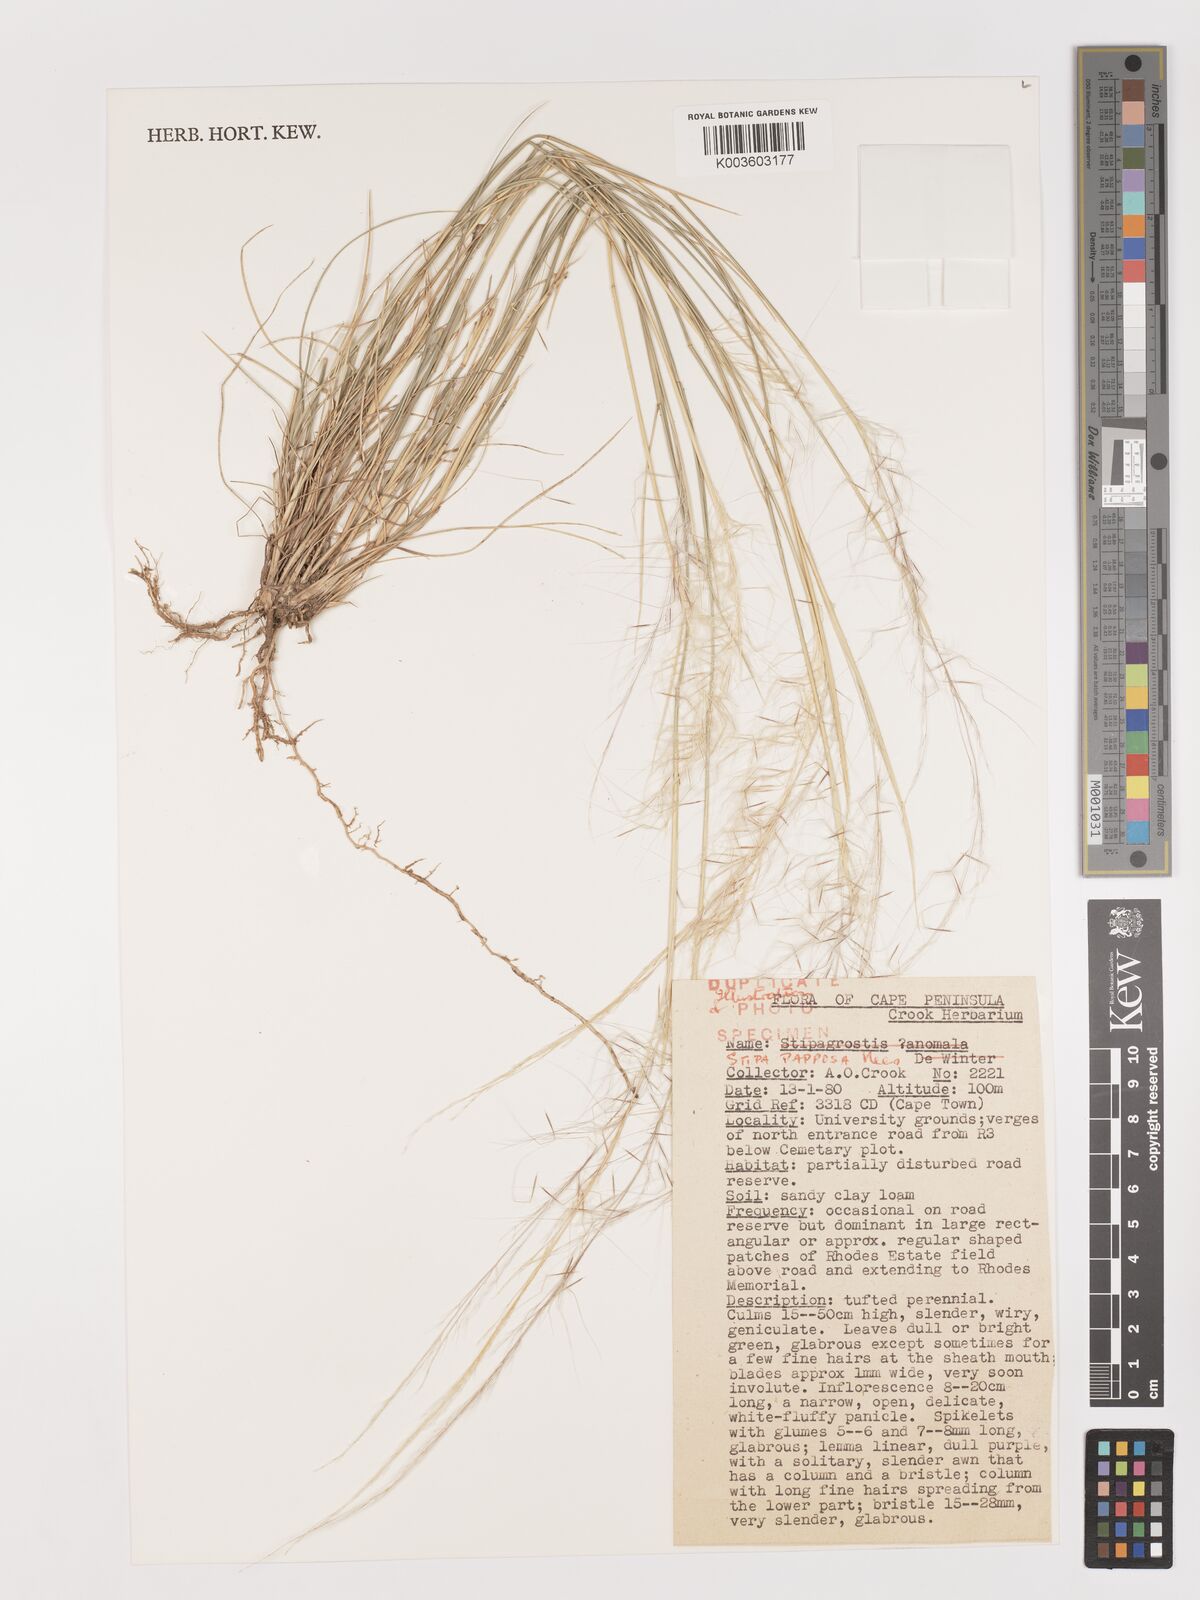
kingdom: Plantae
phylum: Tracheophyta
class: Liliopsida
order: Poales
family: Poaceae
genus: Jarava
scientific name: Jarava plumosa
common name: South american rice grass
